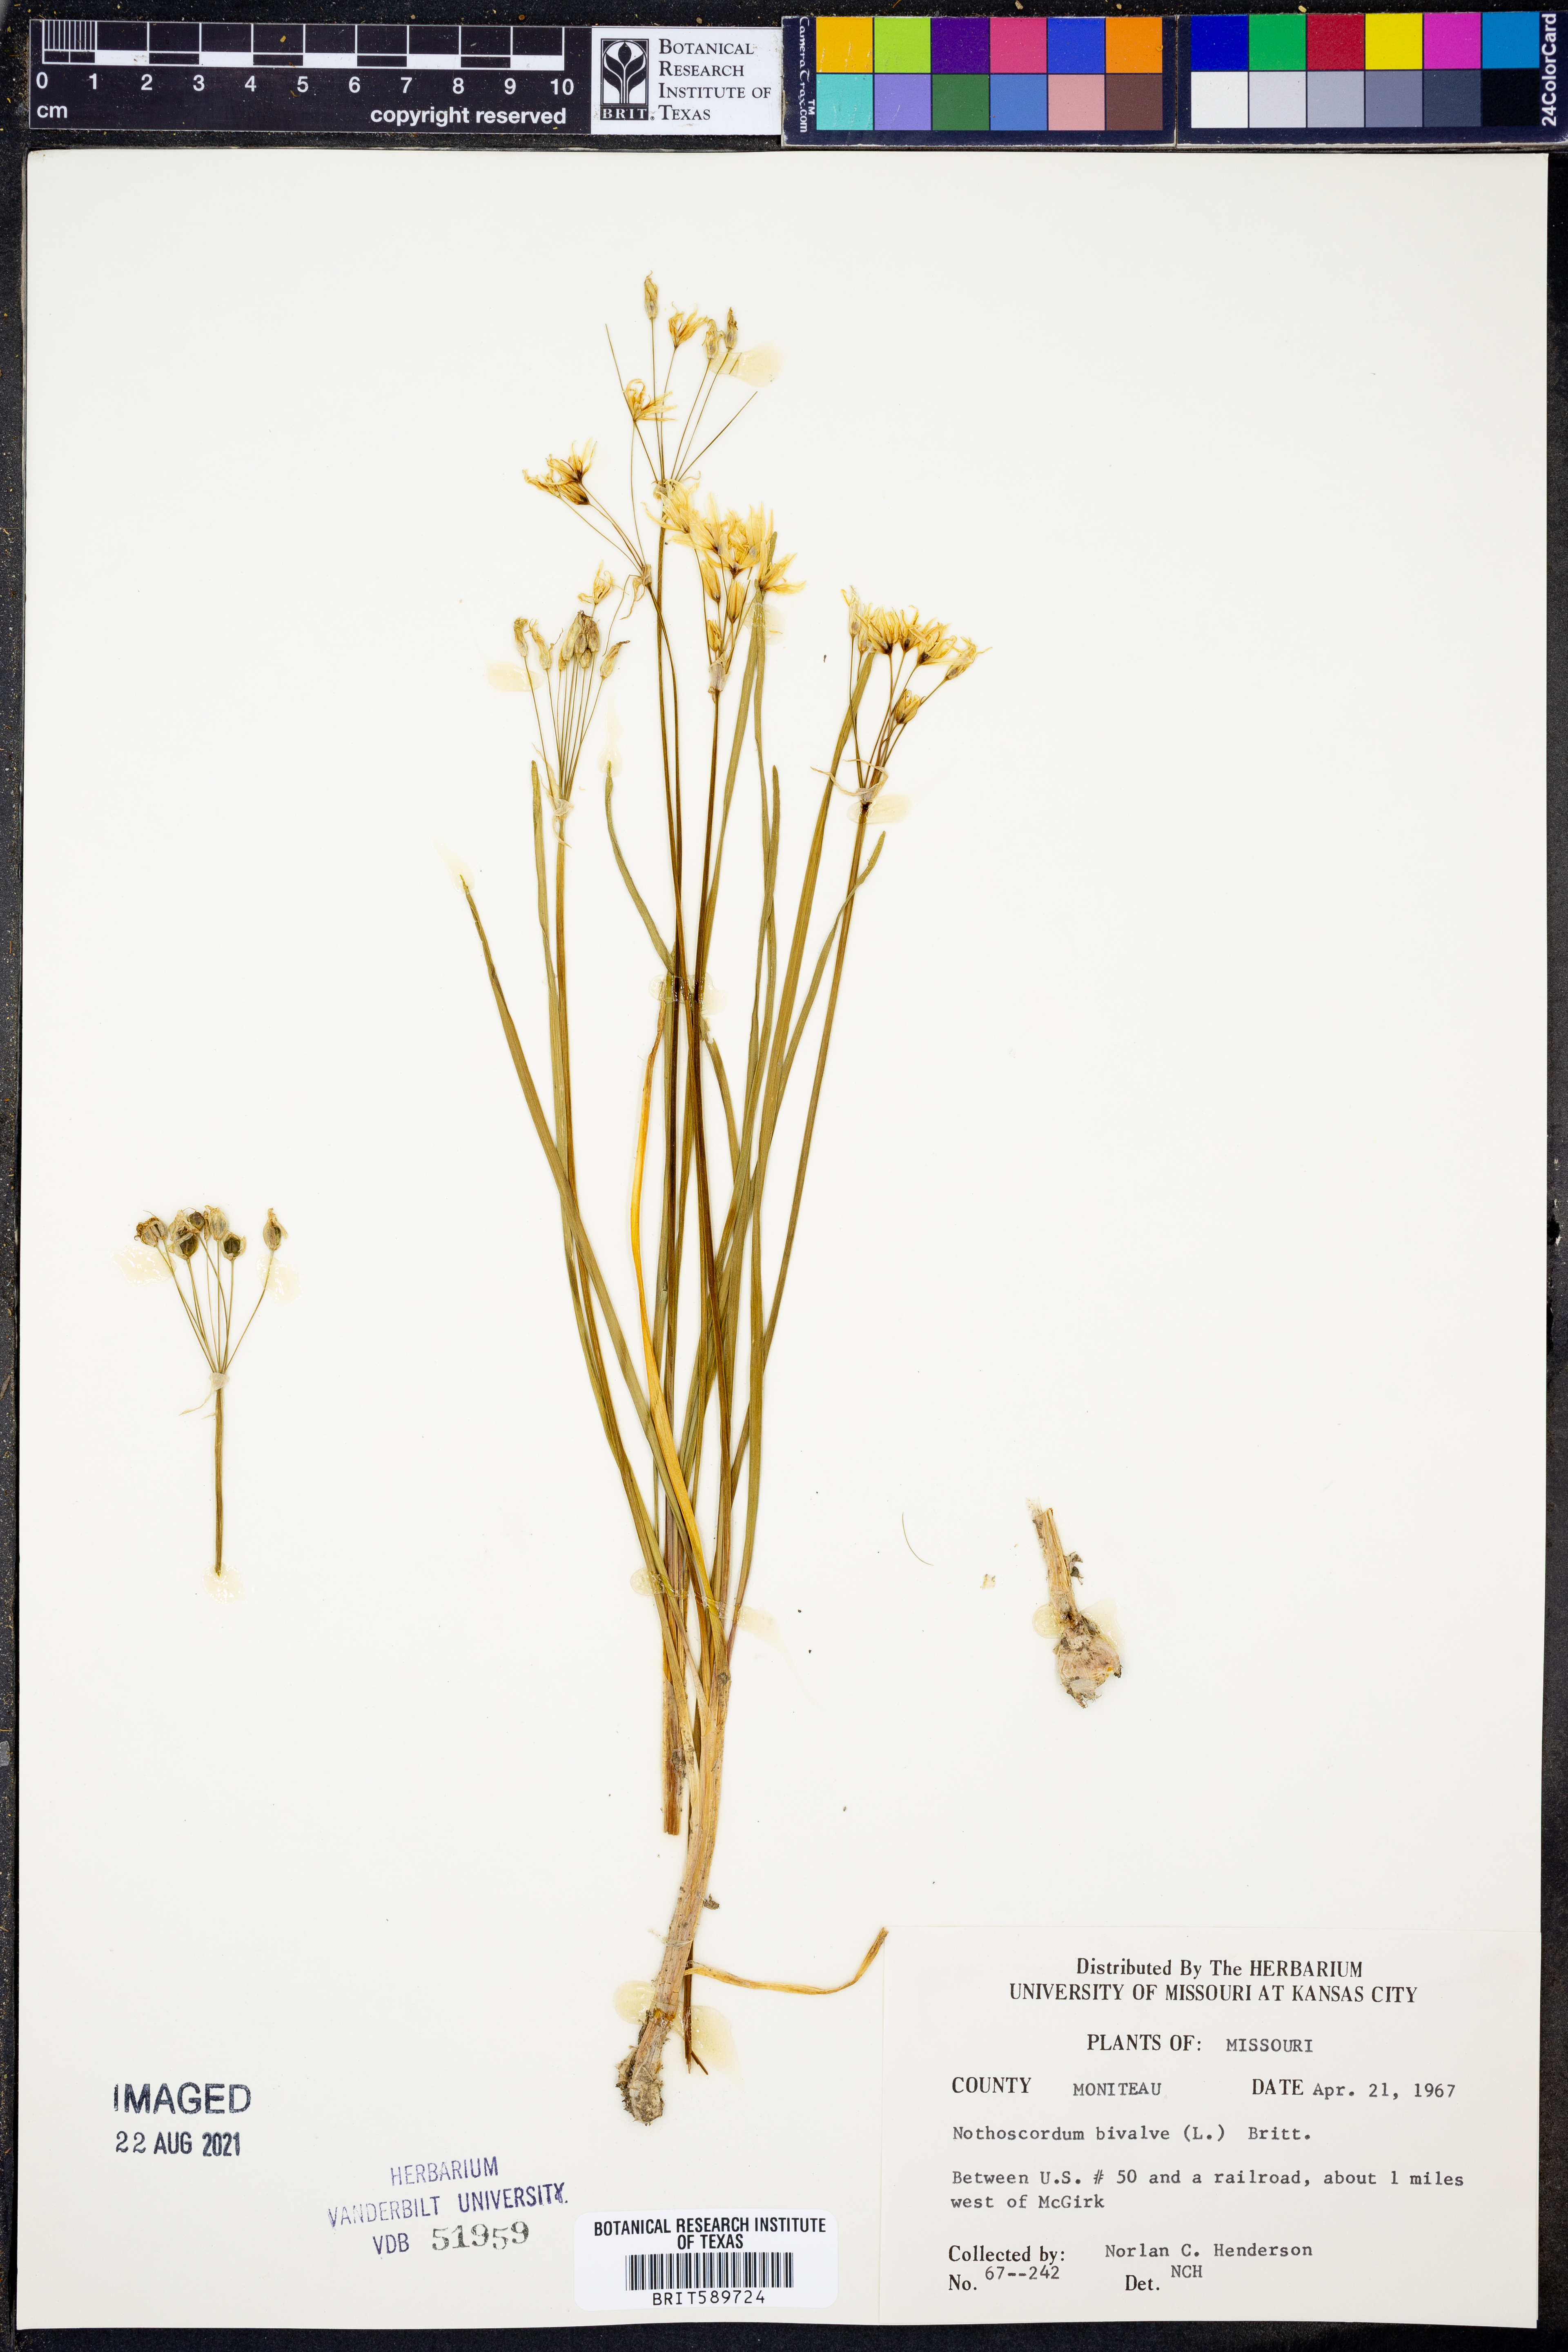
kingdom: Plantae
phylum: Tracheophyta
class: Liliopsida
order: Asparagales
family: Amaryllidaceae
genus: Nothoscordum
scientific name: Nothoscordum bivalve
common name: Crow-poison
